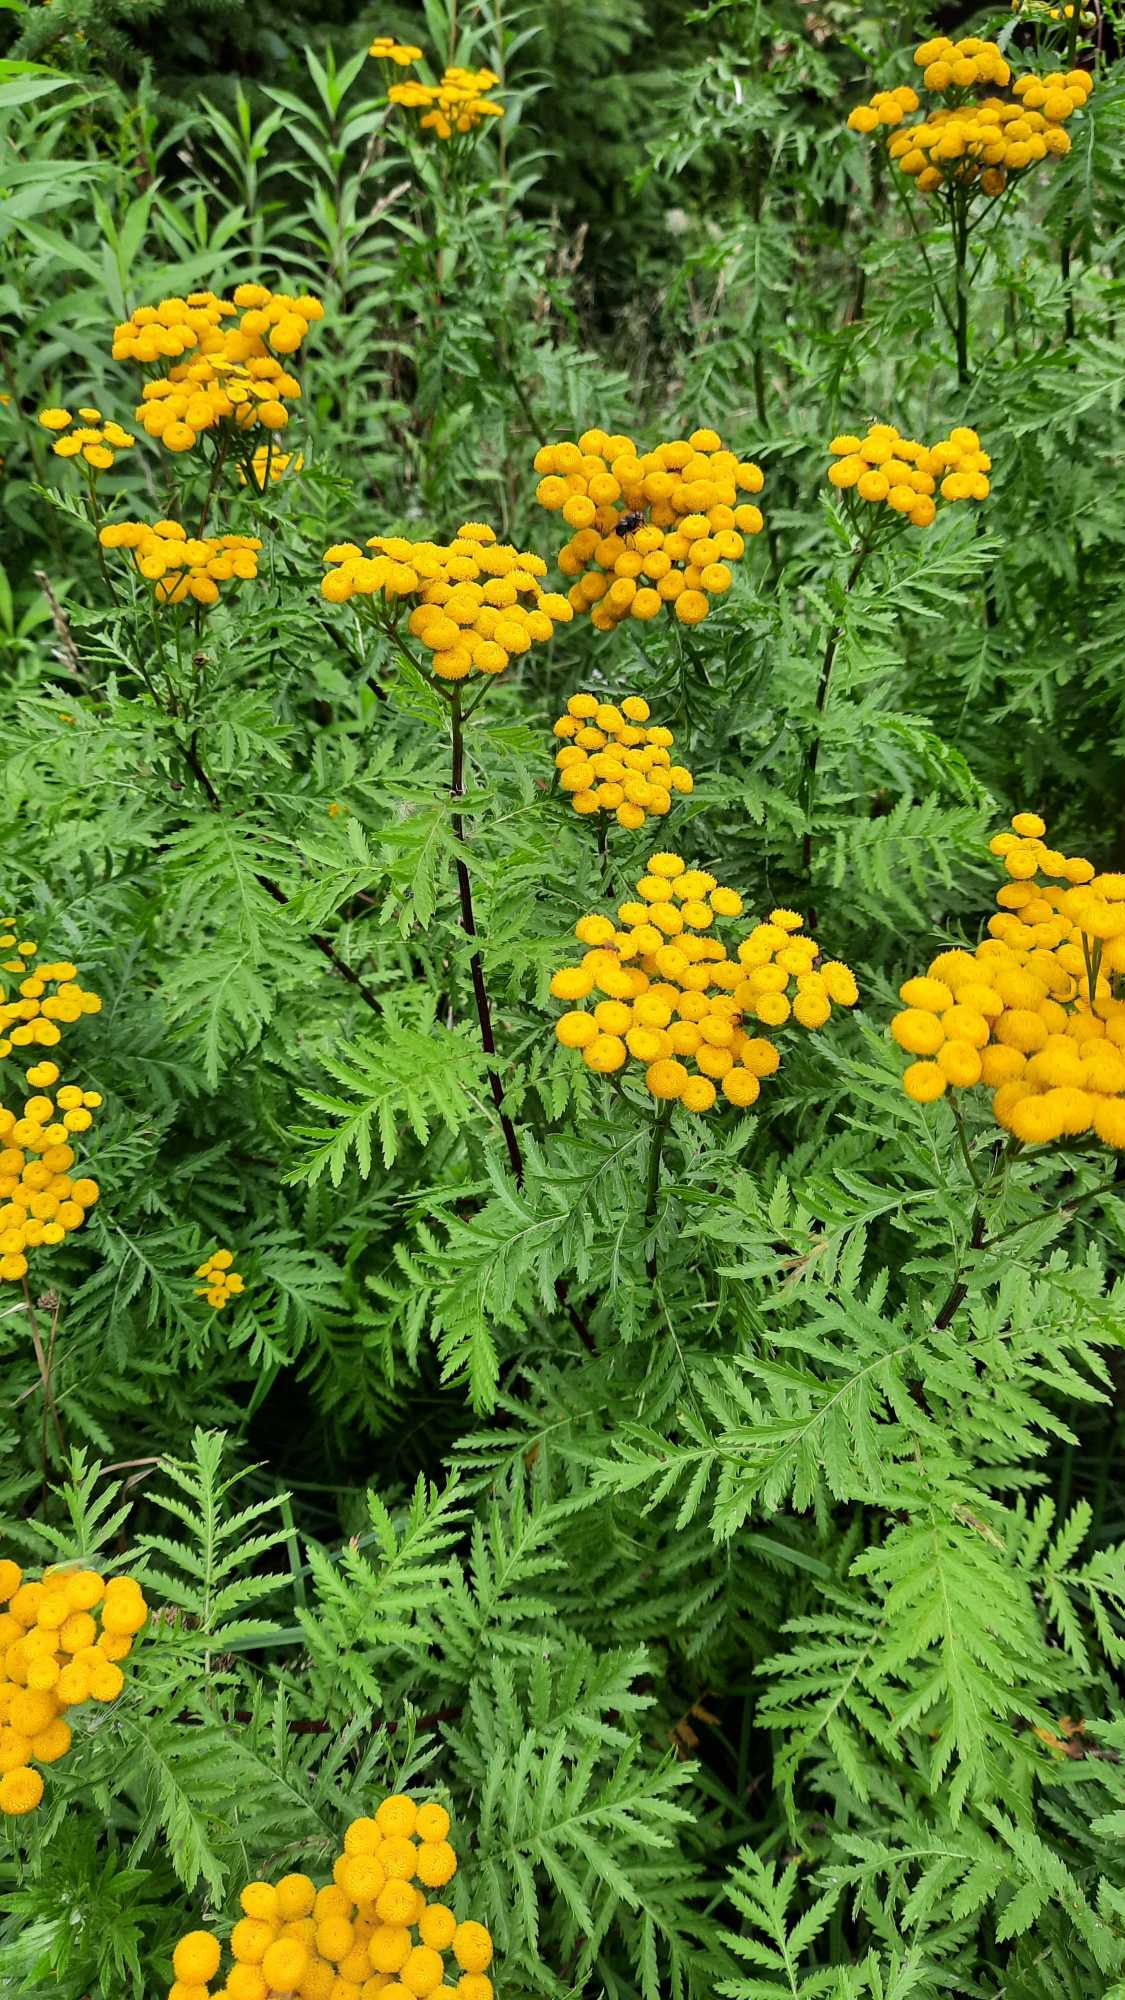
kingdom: Plantae
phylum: Tracheophyta
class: Magnoliopsida
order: Asterales
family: Asteraceae
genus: Tanacetum
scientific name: Tanacetum vulgare
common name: Rejnfan
